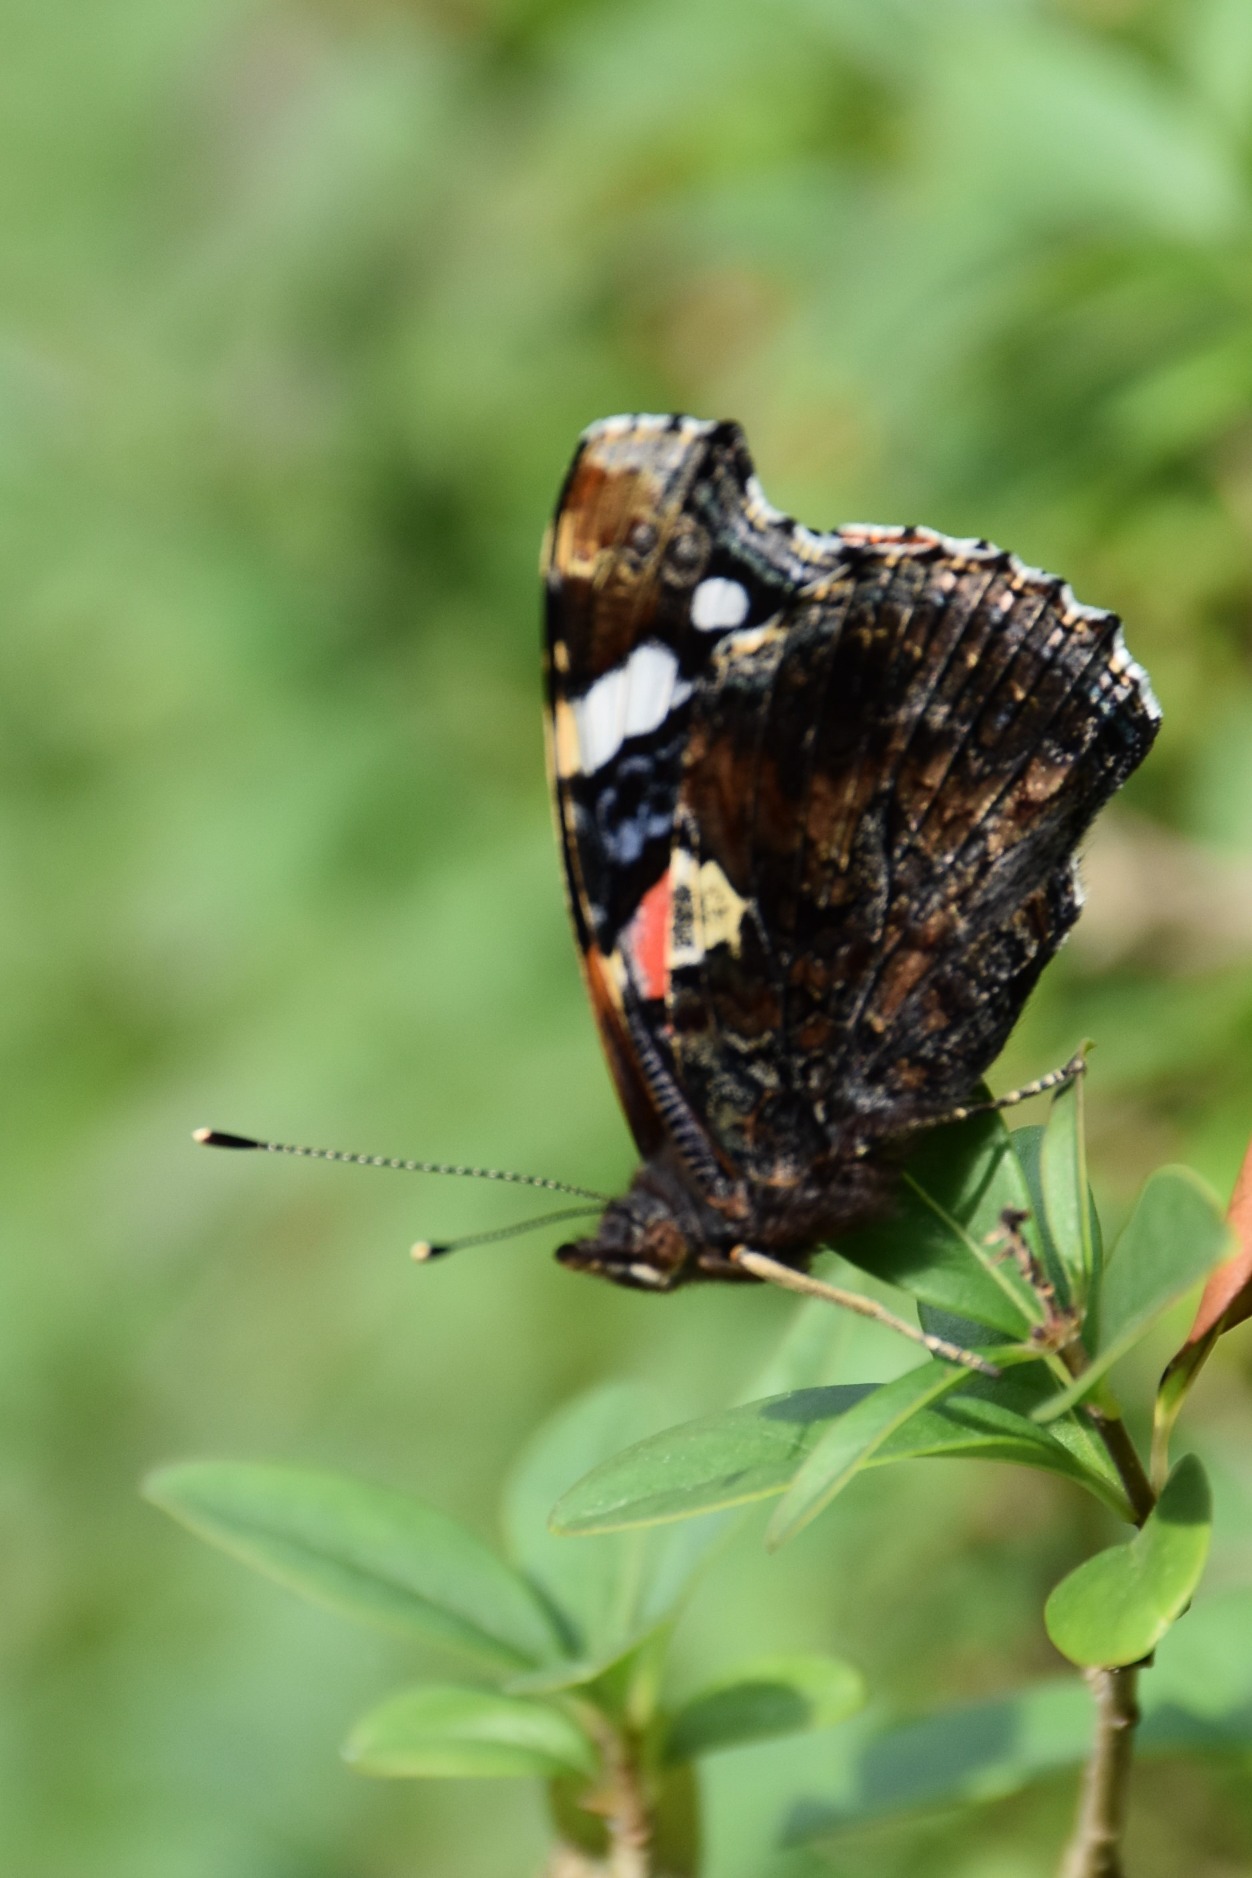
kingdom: Animalia
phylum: Arthropoda
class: Insecta
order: Lepidoptera
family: Nymphalidae
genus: Vanessa
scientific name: Vanessa atalanta
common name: Admiral
